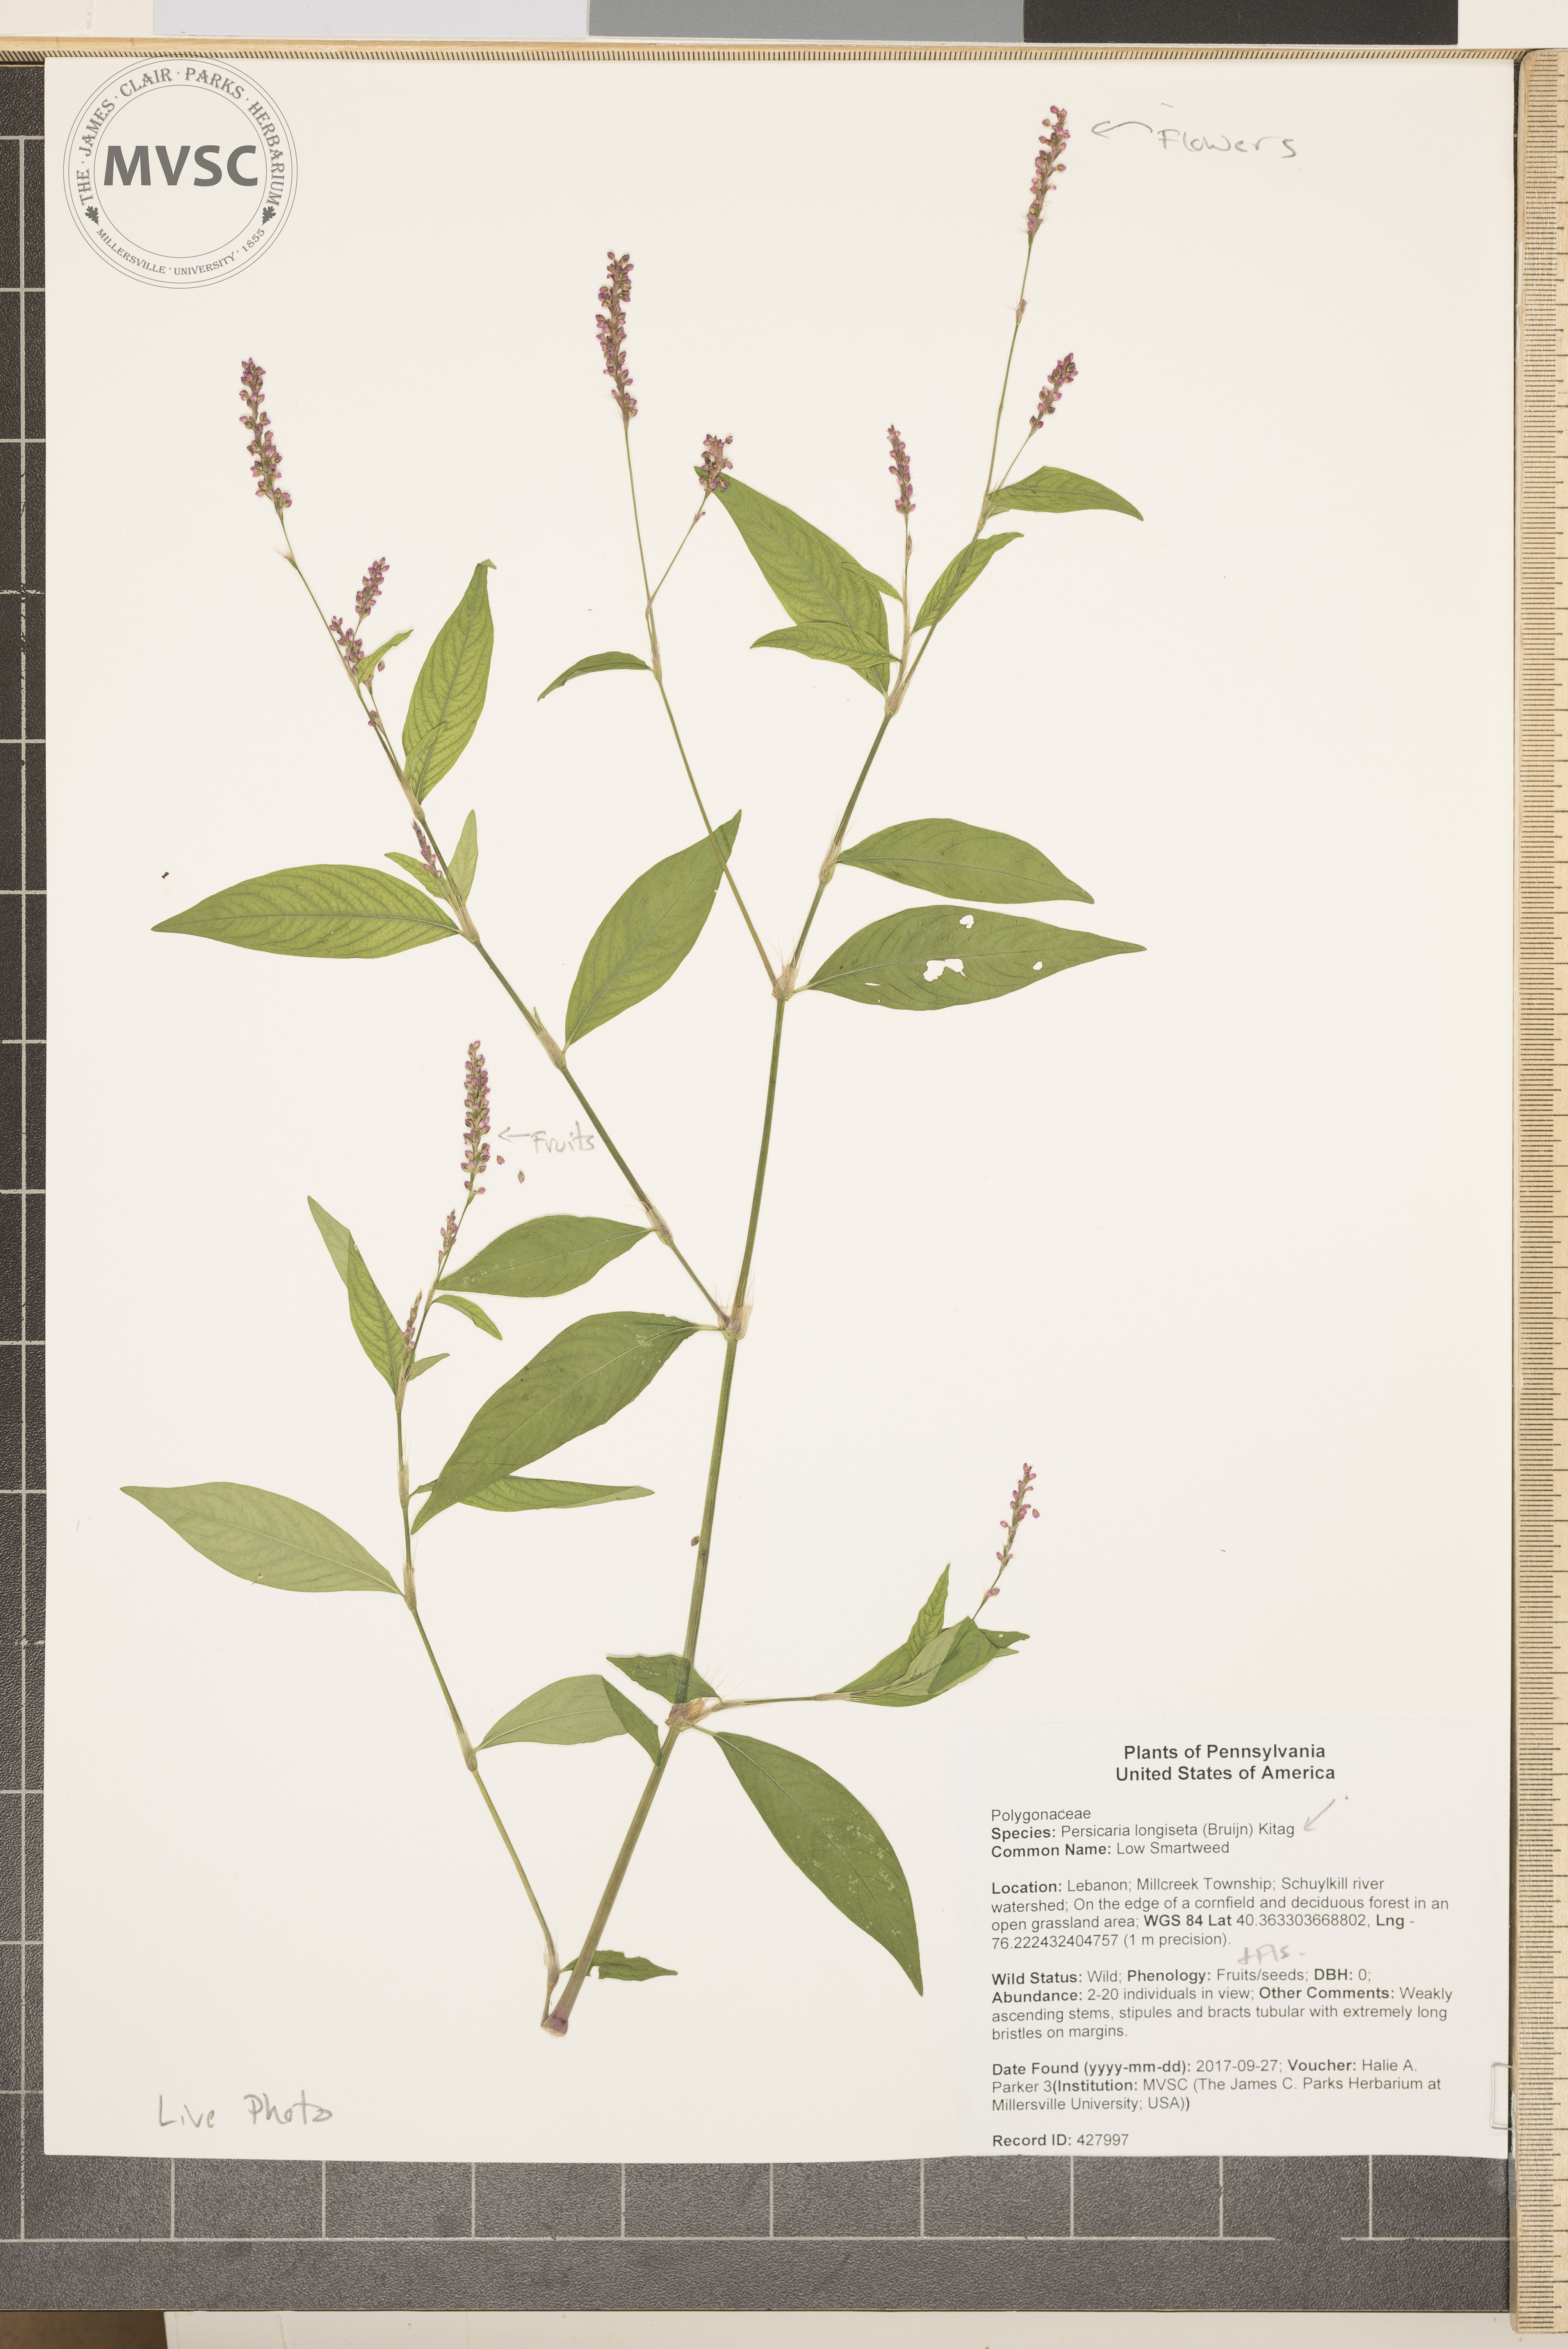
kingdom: Plantae
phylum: Tracheophyta
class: Magnoliopsida
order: Caryophyllales
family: Polygonaceae
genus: Persicaria
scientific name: Persicaria longiseta
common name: Low Smartweed
